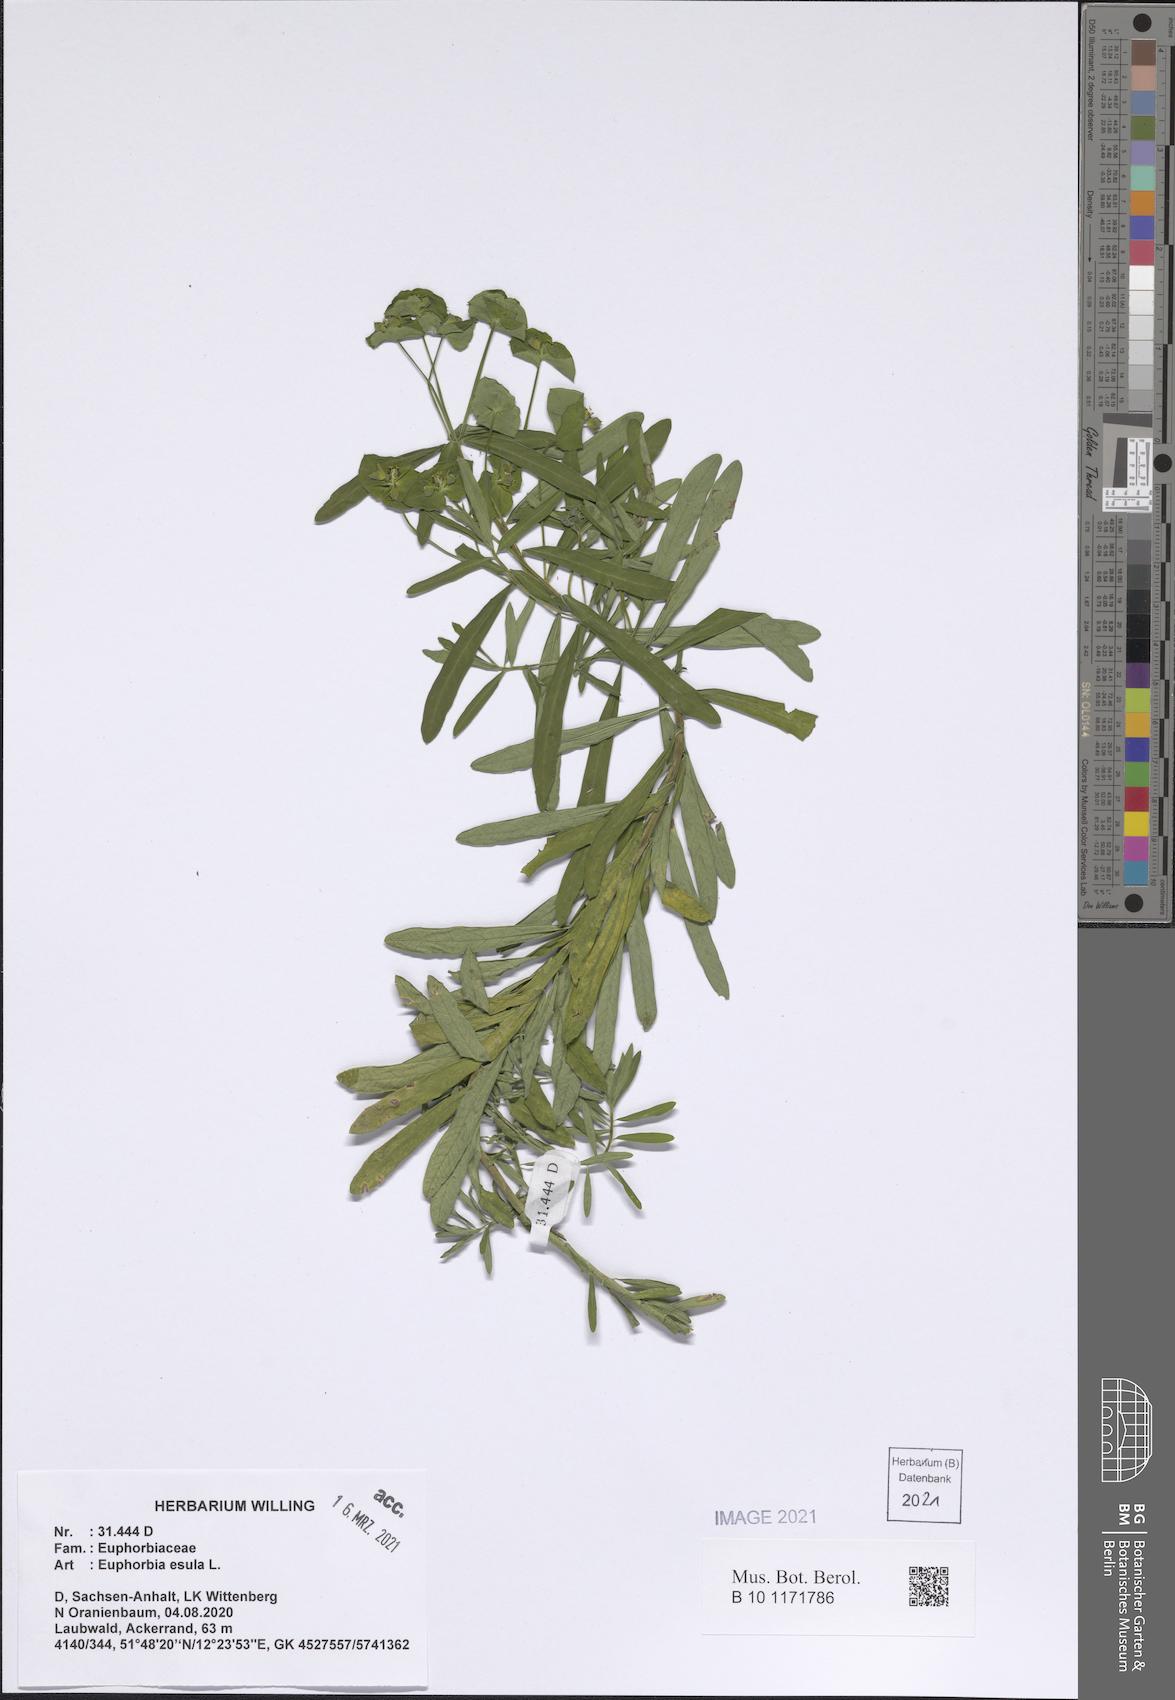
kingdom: Plantae
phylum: Tracheophyta
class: Magnoliopsida
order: Malpighiales
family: Euphorbiaceae
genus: Euphorbia
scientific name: Euphorbia esula
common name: Leafy spurge
